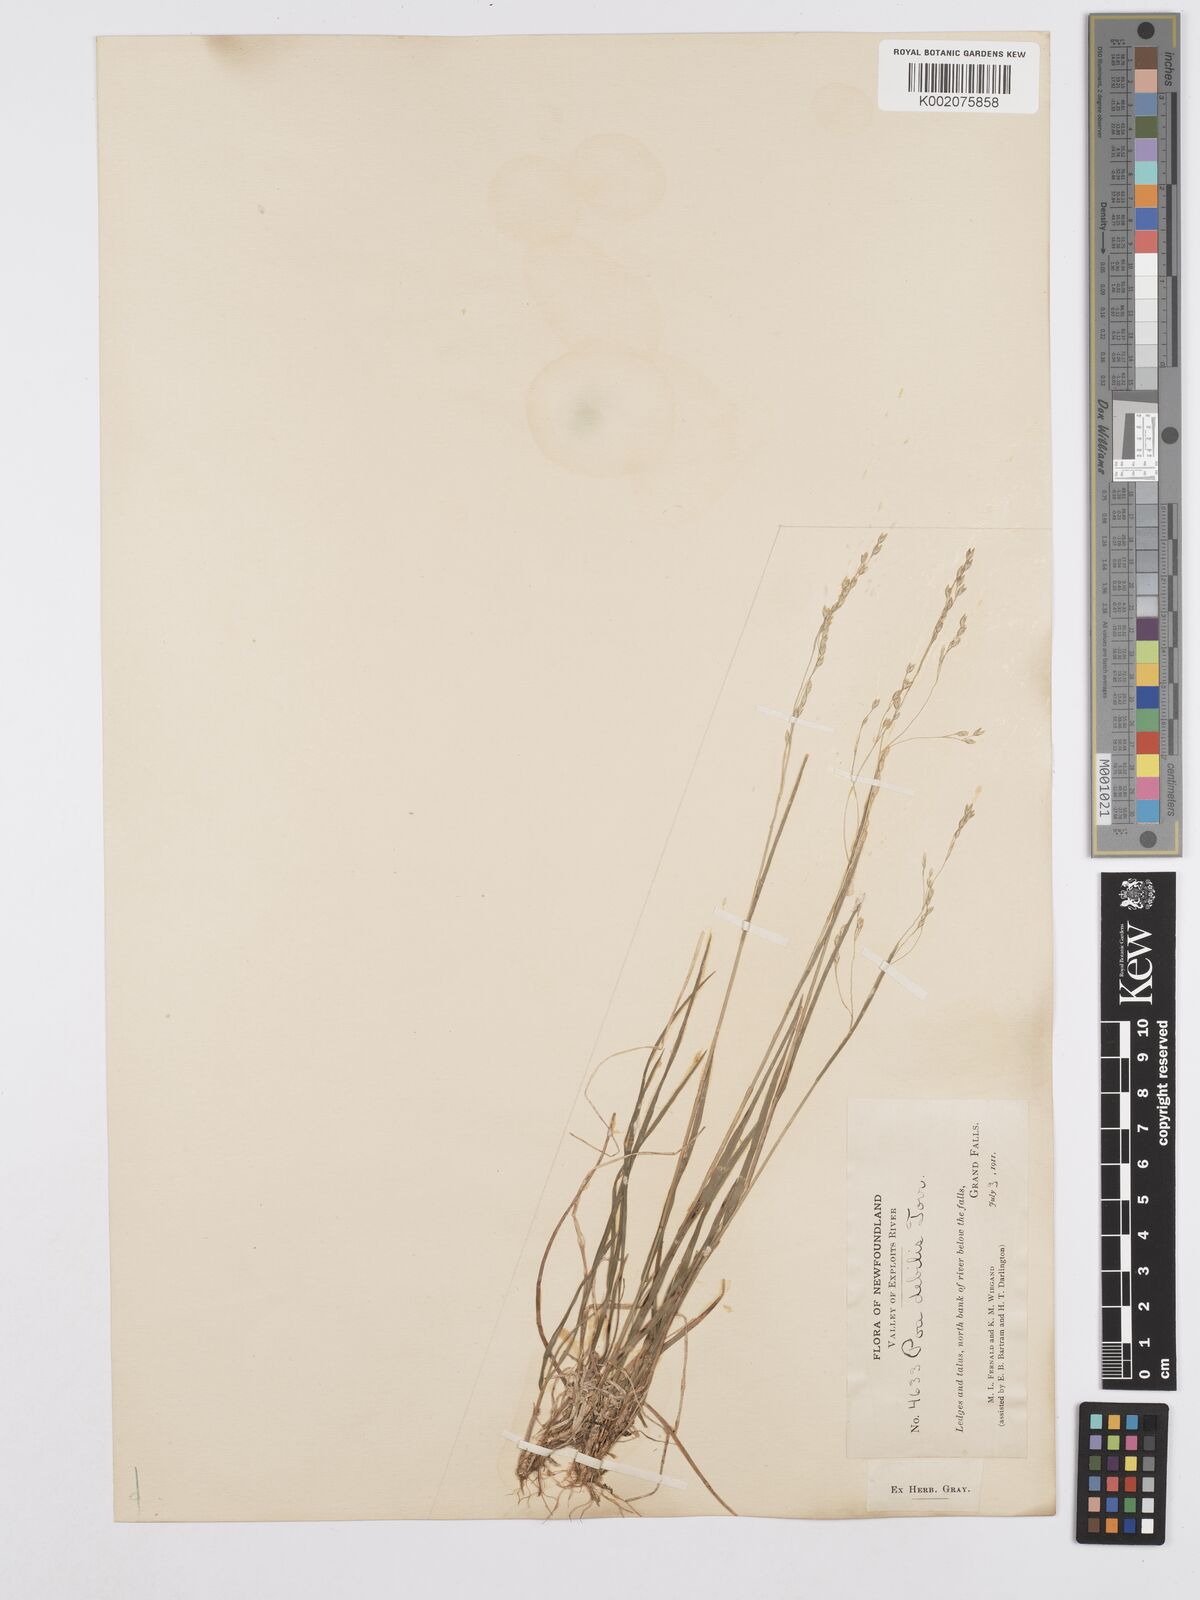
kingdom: Plantae
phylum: Tracheophyta
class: Liliopsida
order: Poales
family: Poaceae
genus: Poa
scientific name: Poa saltuensis
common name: Bushy pasture speargrass
